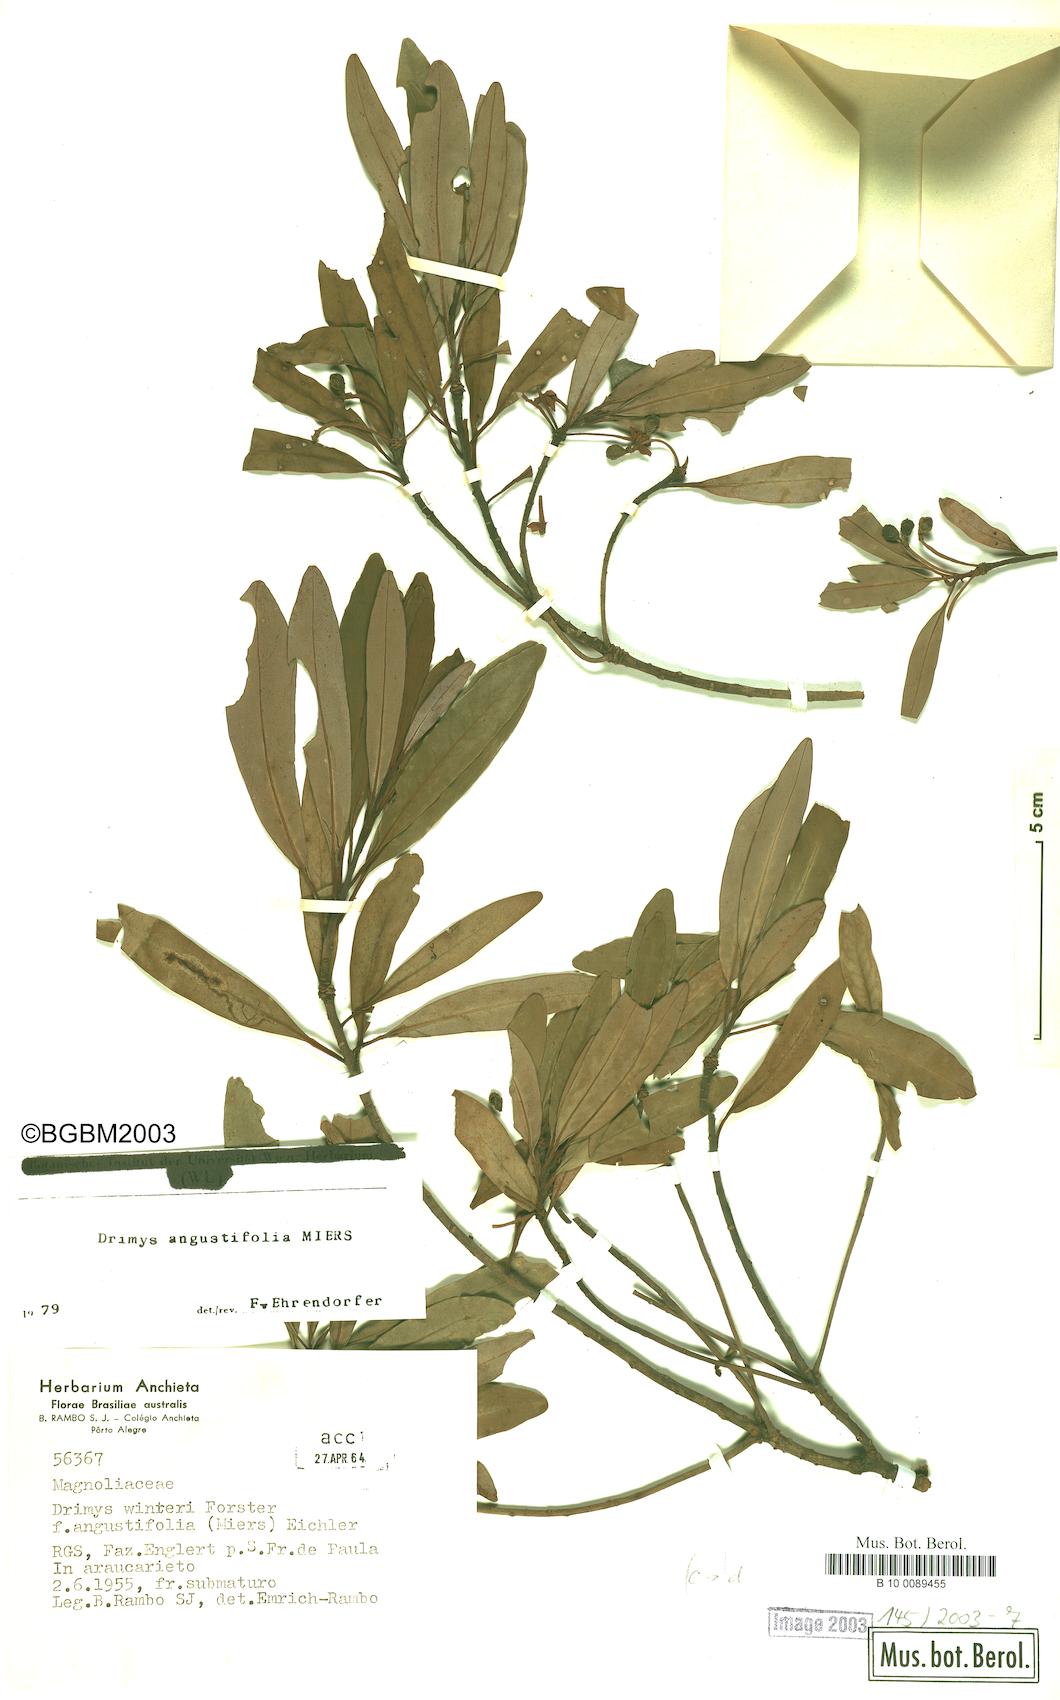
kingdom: Plantae
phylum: Tracheophyta
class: Magnoliopsida
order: Canellales
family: Winteraceae
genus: Drimys
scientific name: Drimys angustifolia
